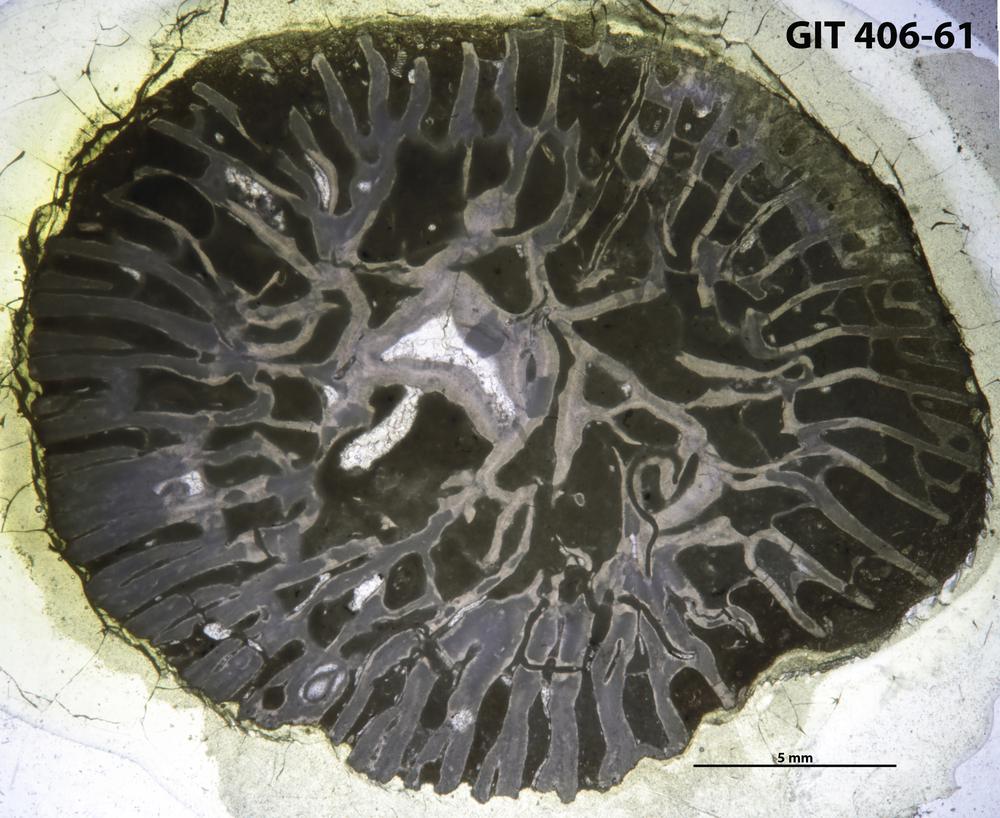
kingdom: Animalia
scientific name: Animalia
